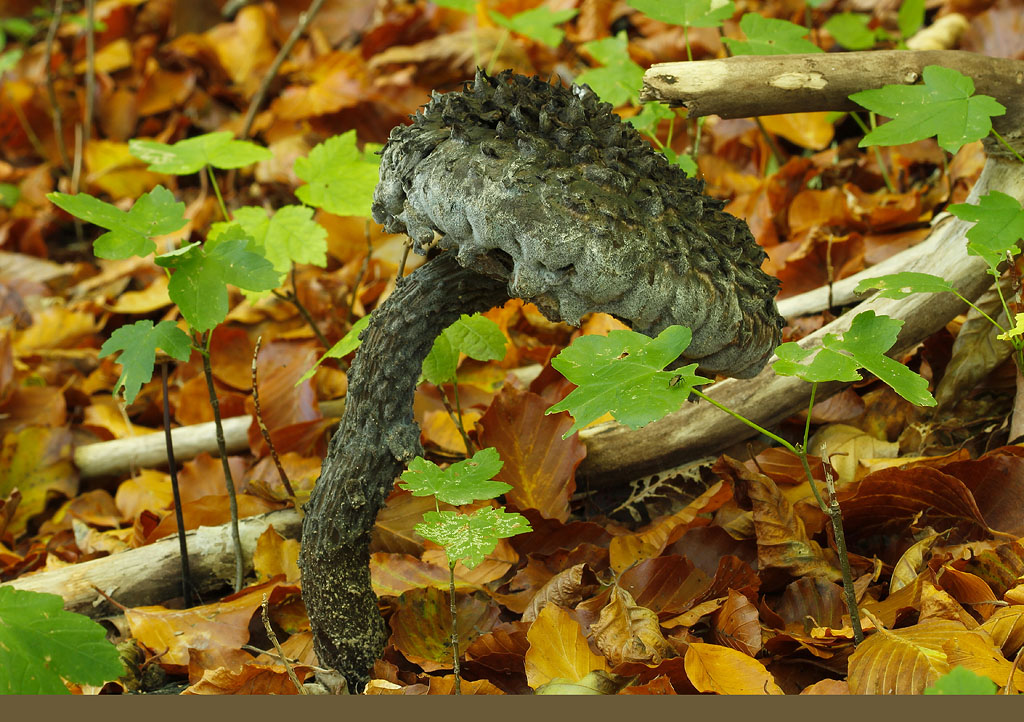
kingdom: Fungi
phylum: Basidiomycota
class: Agaricomycetes
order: Boletales
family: Boletaceae
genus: Strobilomyces
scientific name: Strobilomyces strobilaceus
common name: koglerørhat
